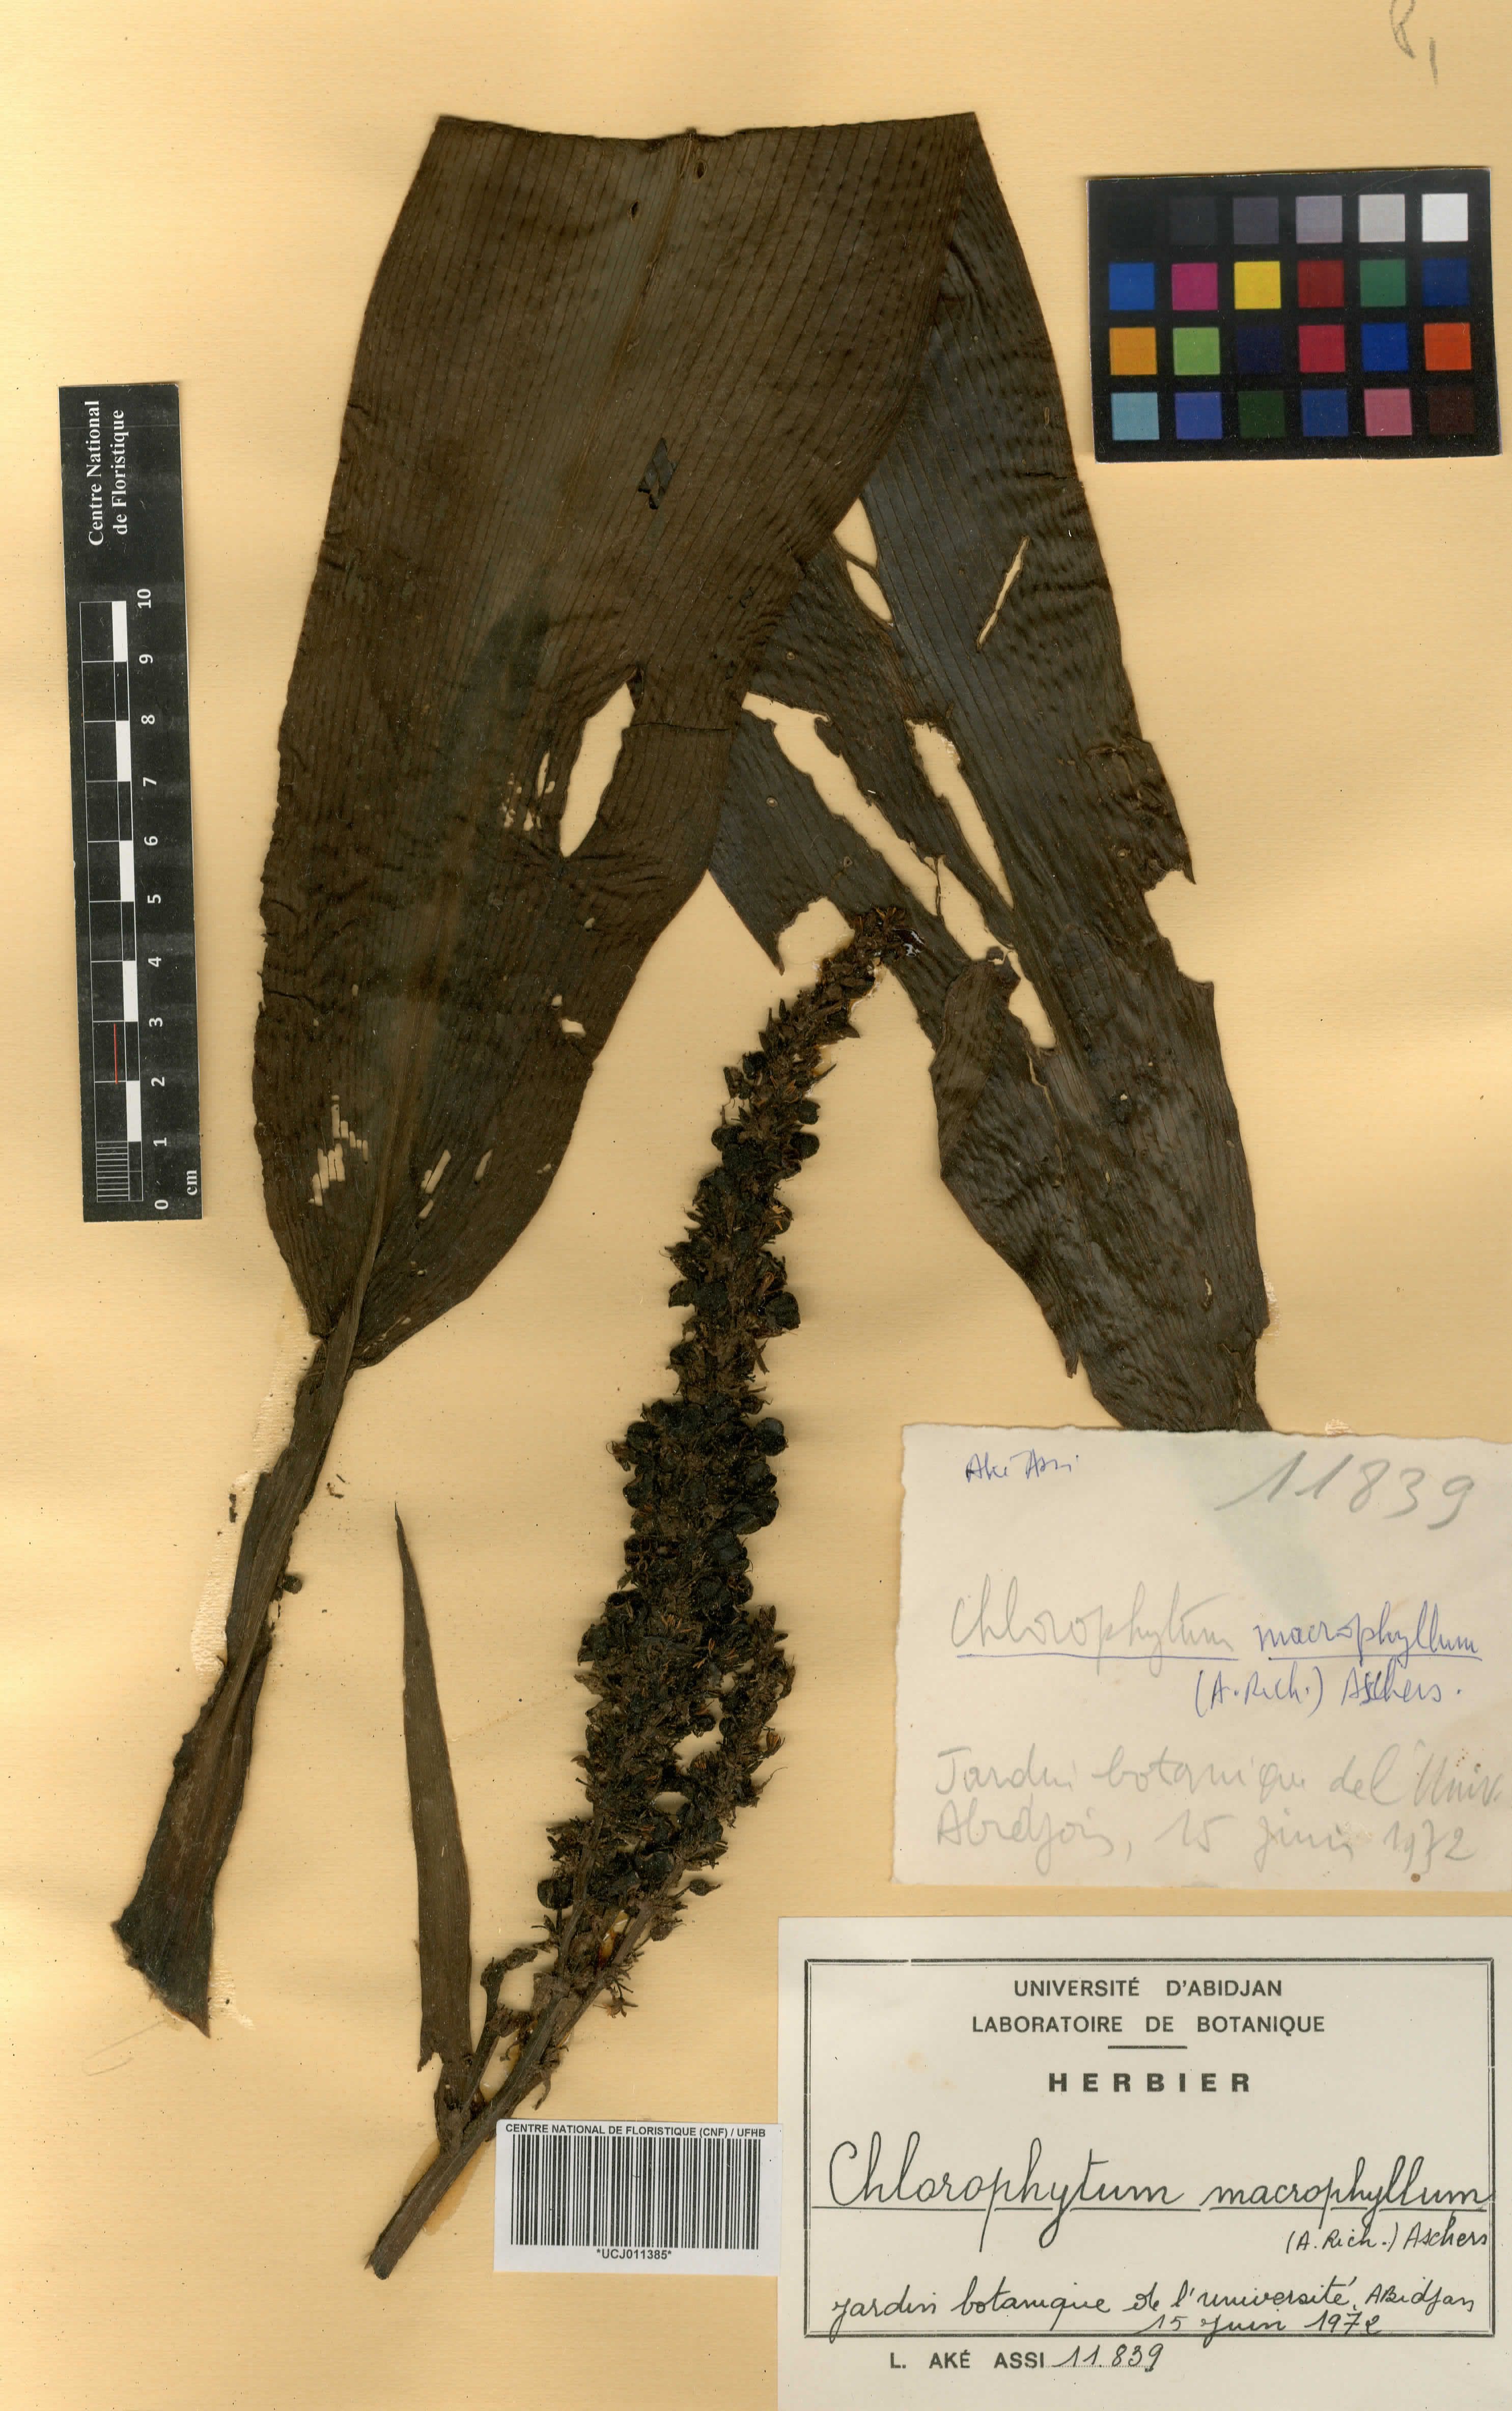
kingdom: Plantae
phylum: Tracheophyta
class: Liliopsida
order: Asparagales
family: Asparagaceae
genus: Chlorophytum
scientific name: Chlorophytum macrophyllum
